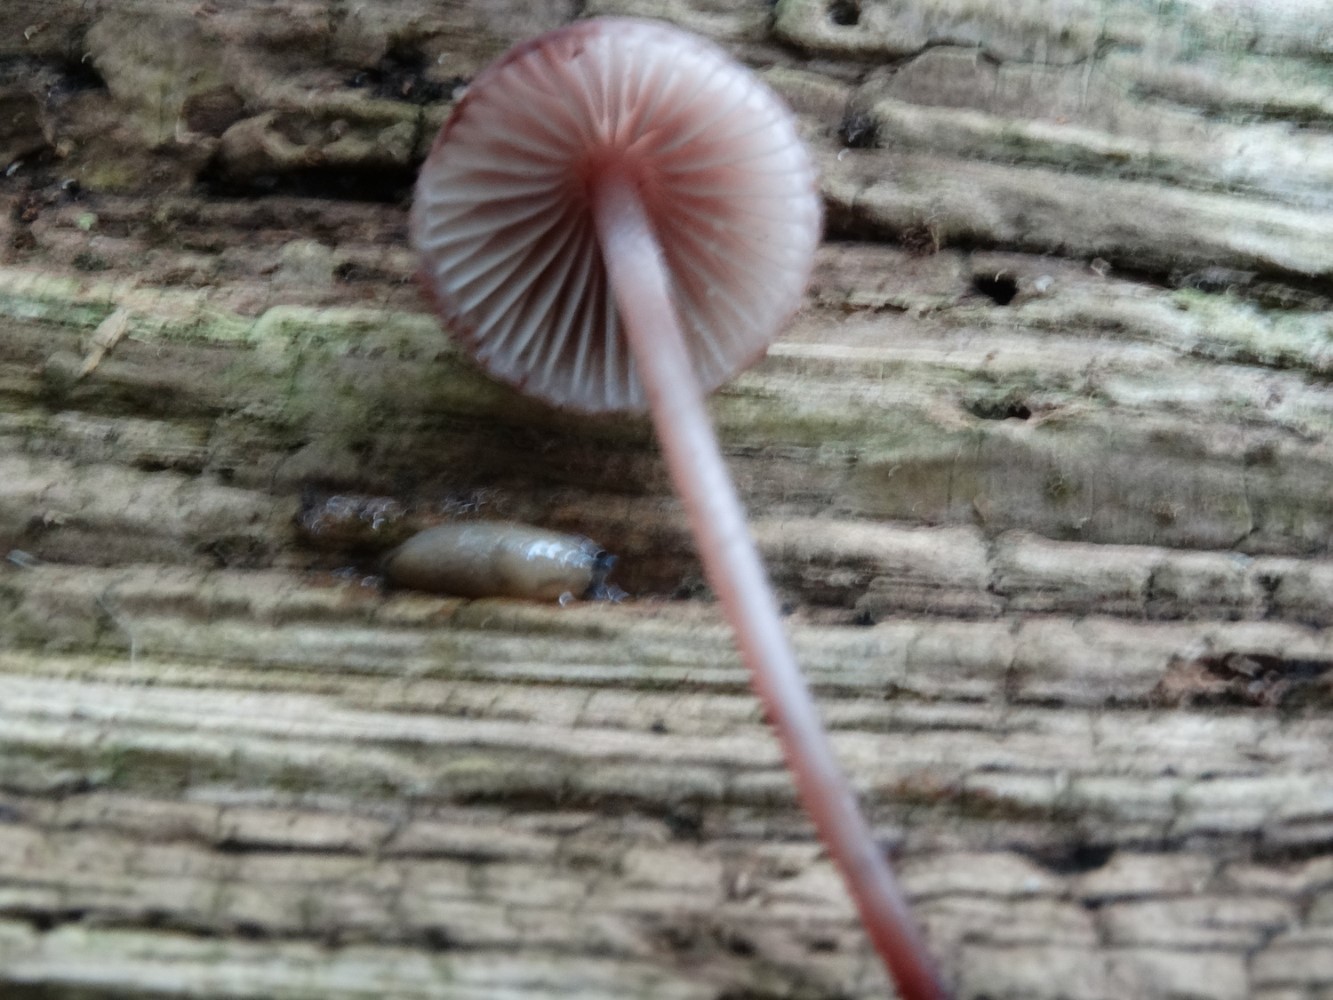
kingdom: Fungi
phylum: Basidiomycota
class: Agaricomycetes
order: Agaricales
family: Mycenaceae
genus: Mycena
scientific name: Mycena haematopus
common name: blødende huesvamp
